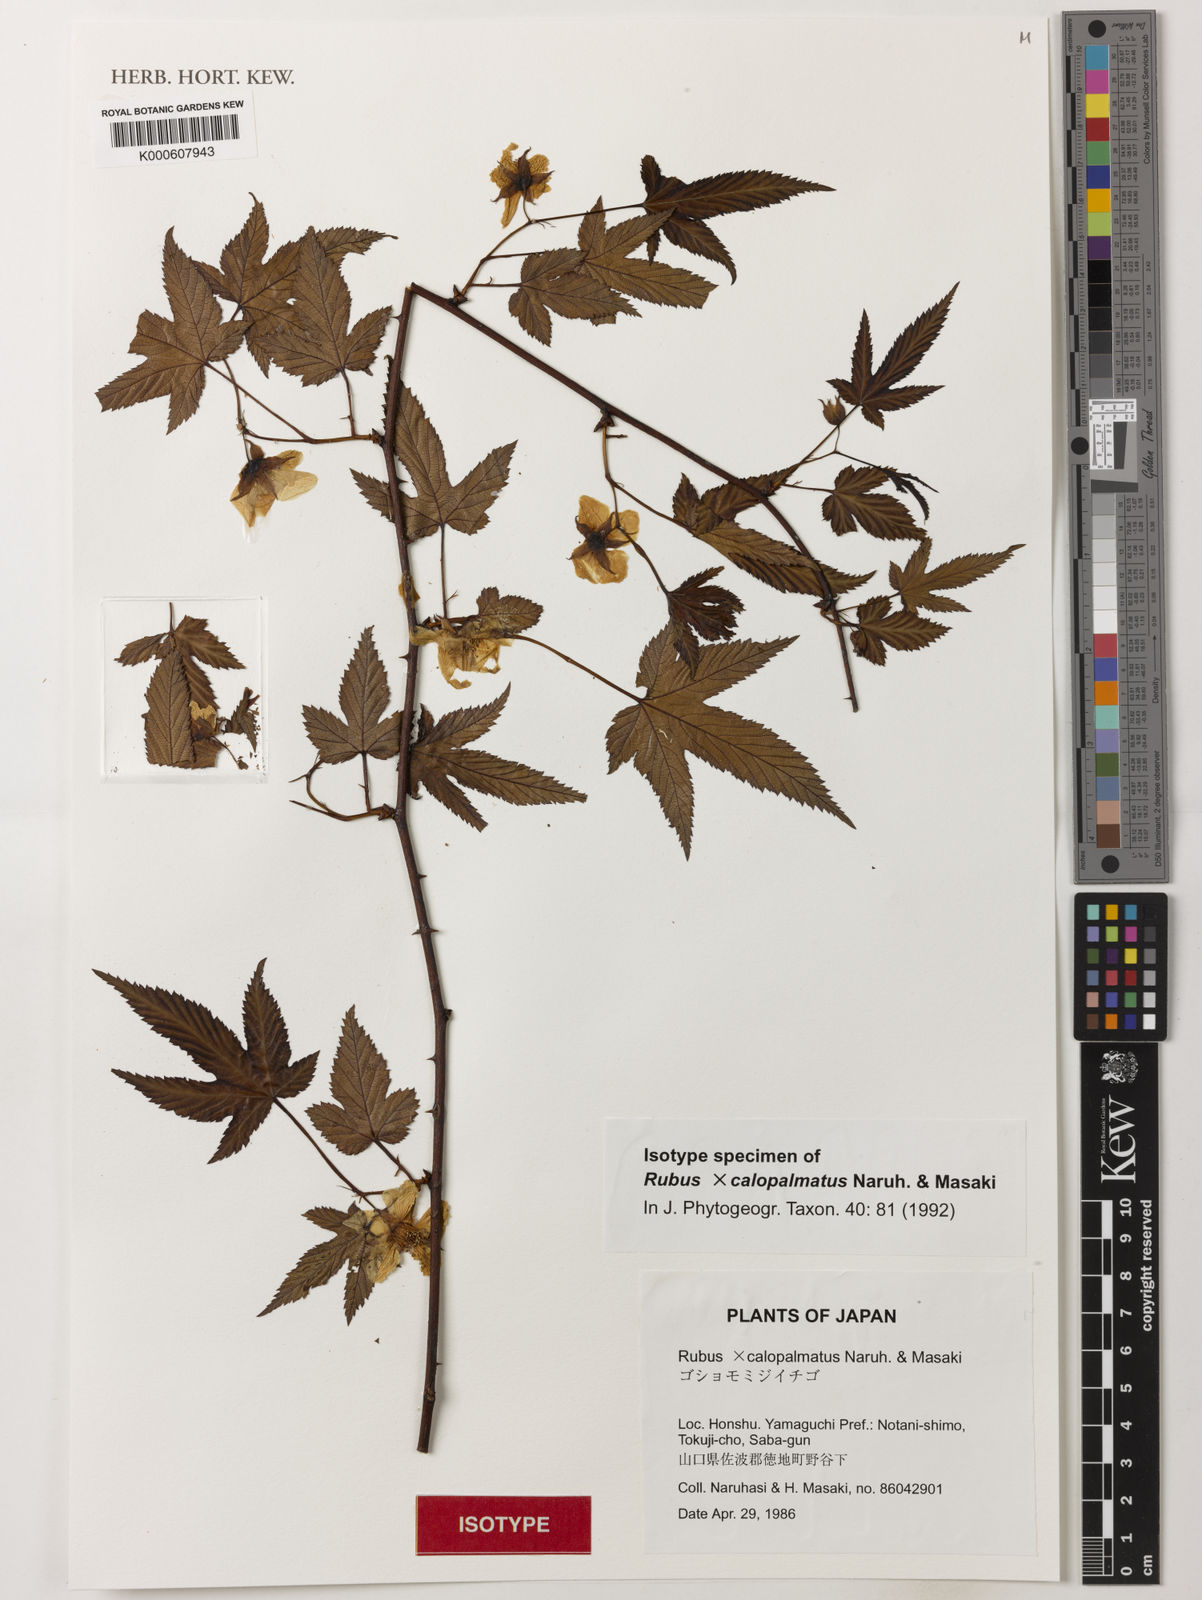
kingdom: Plantae
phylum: Tracheophyta
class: Magnoliopsida
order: Rosales
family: Rosaceae
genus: Rubus
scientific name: Rubus calopalmatus
